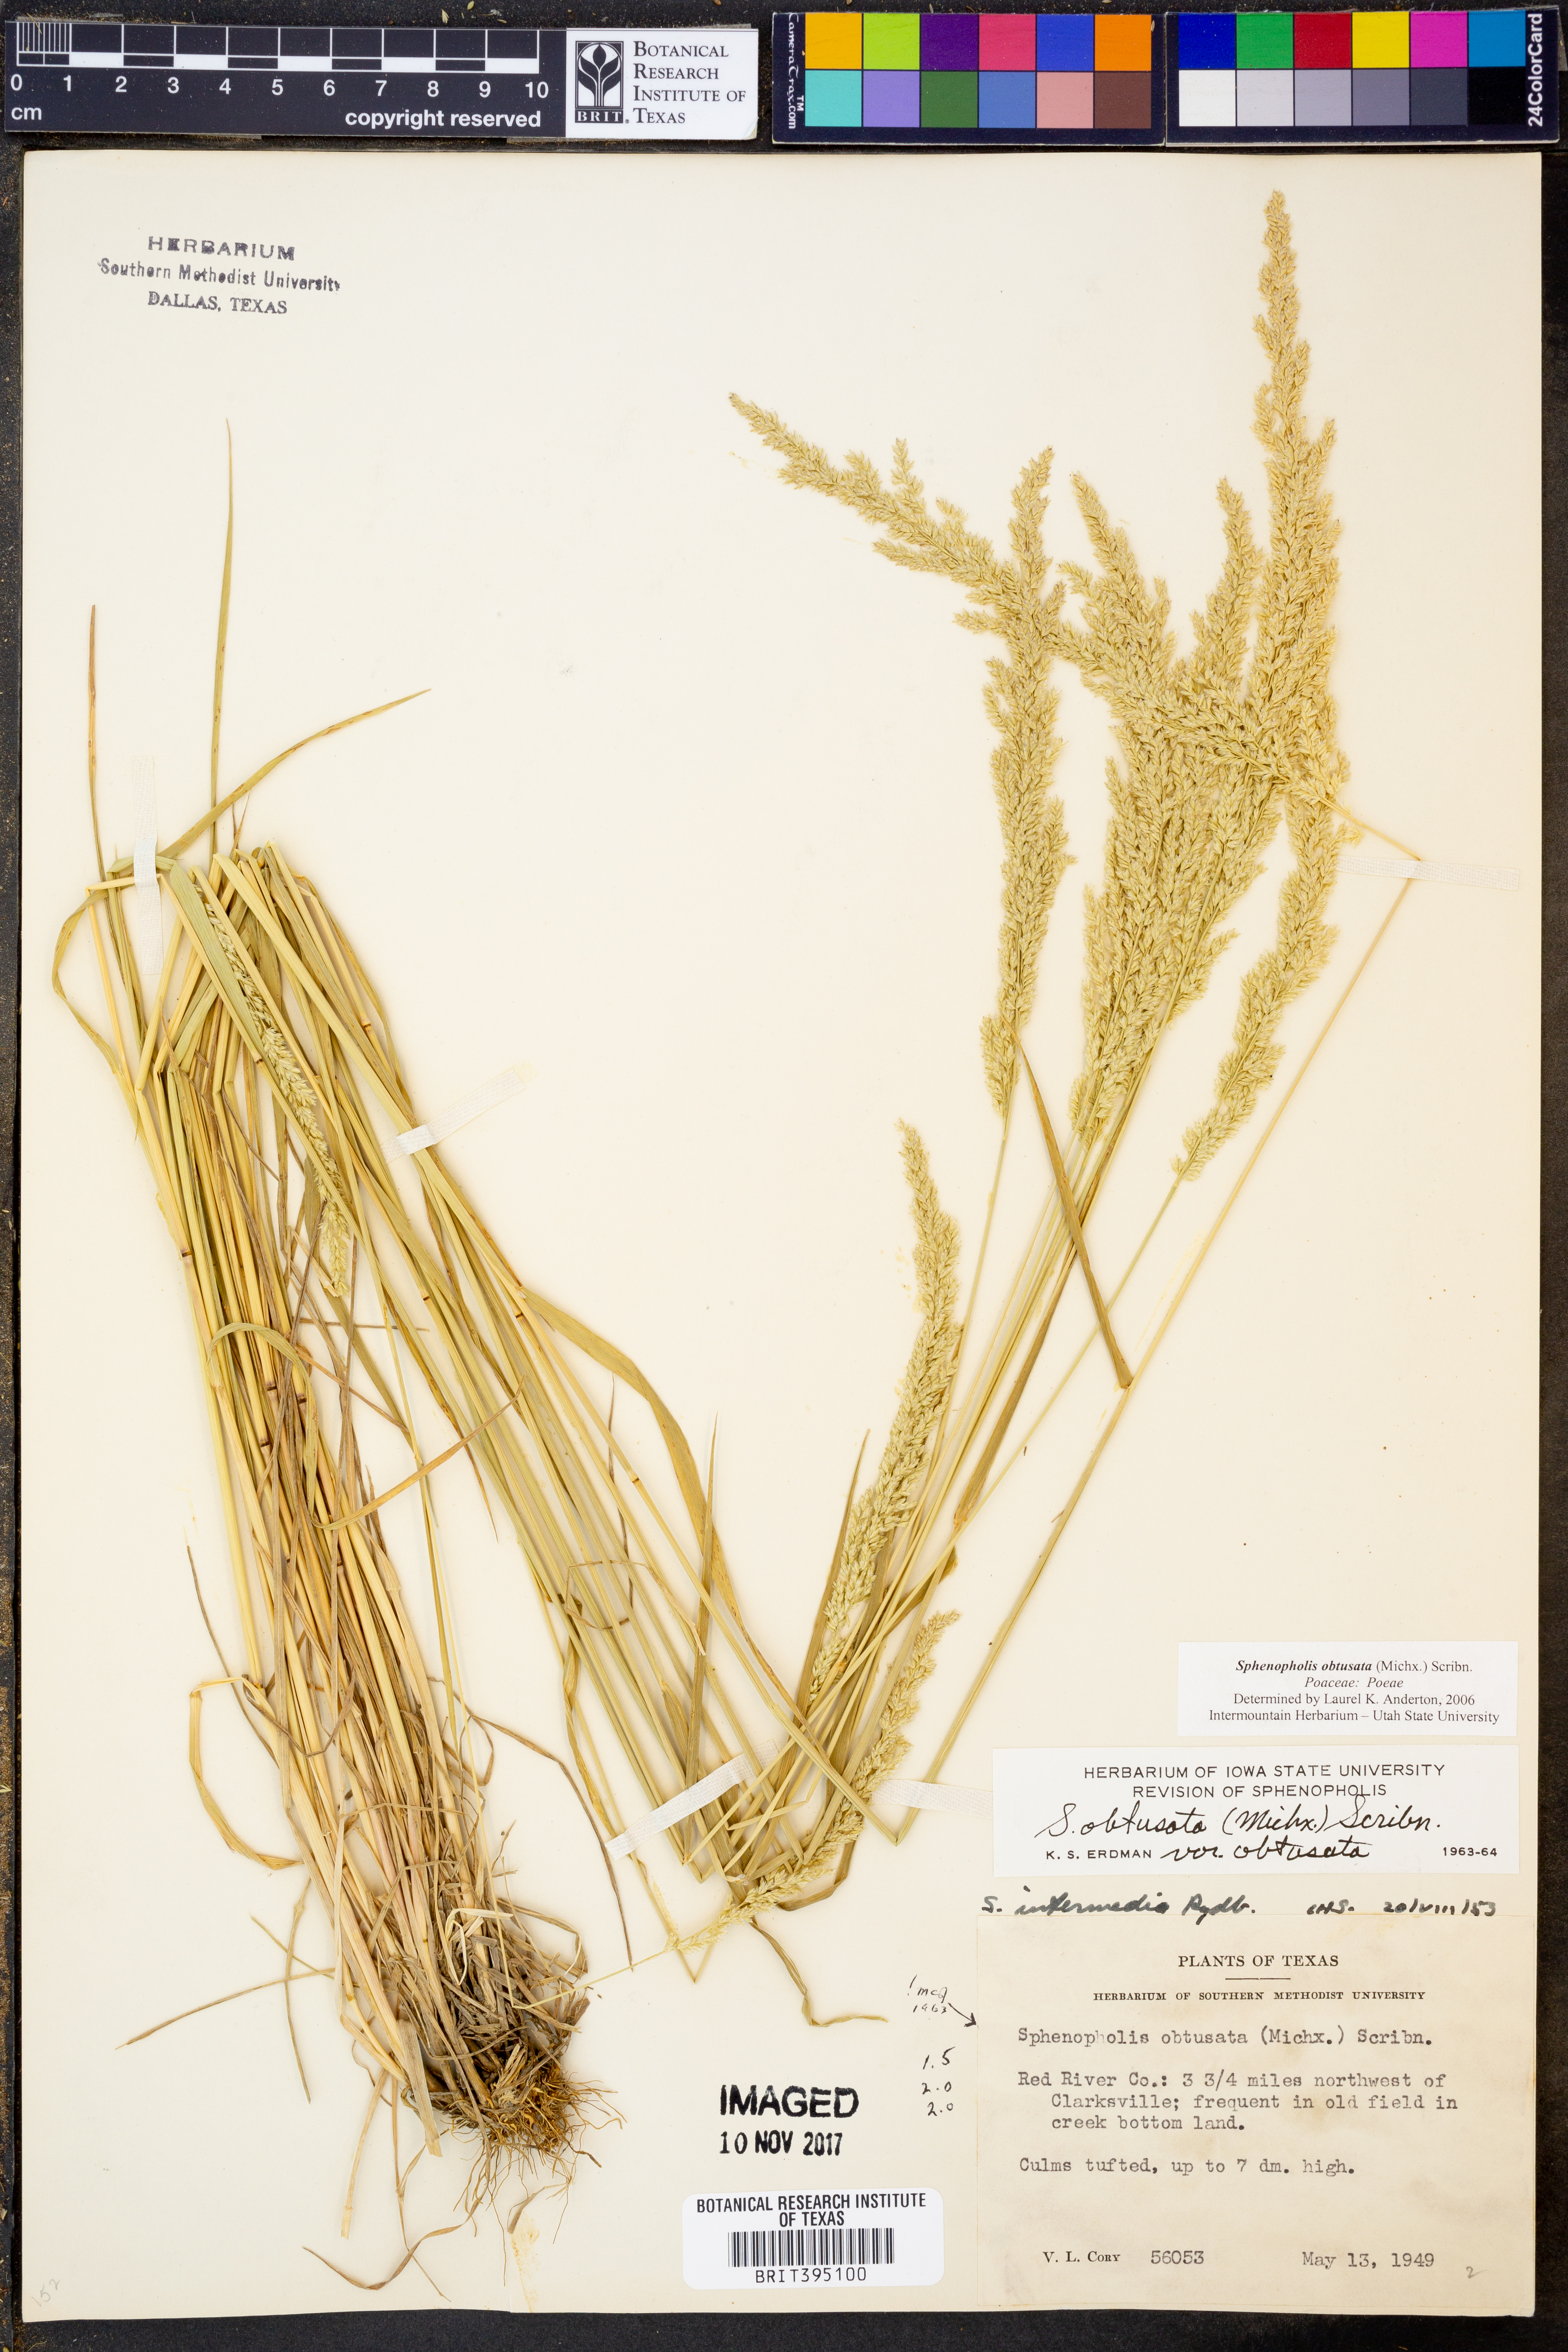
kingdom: Plantae
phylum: Tracheophyta
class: Liliopsida
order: Poales
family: Poaceae
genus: Sphenopholis
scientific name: Sphenopholis obtusata
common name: Prairie grass
